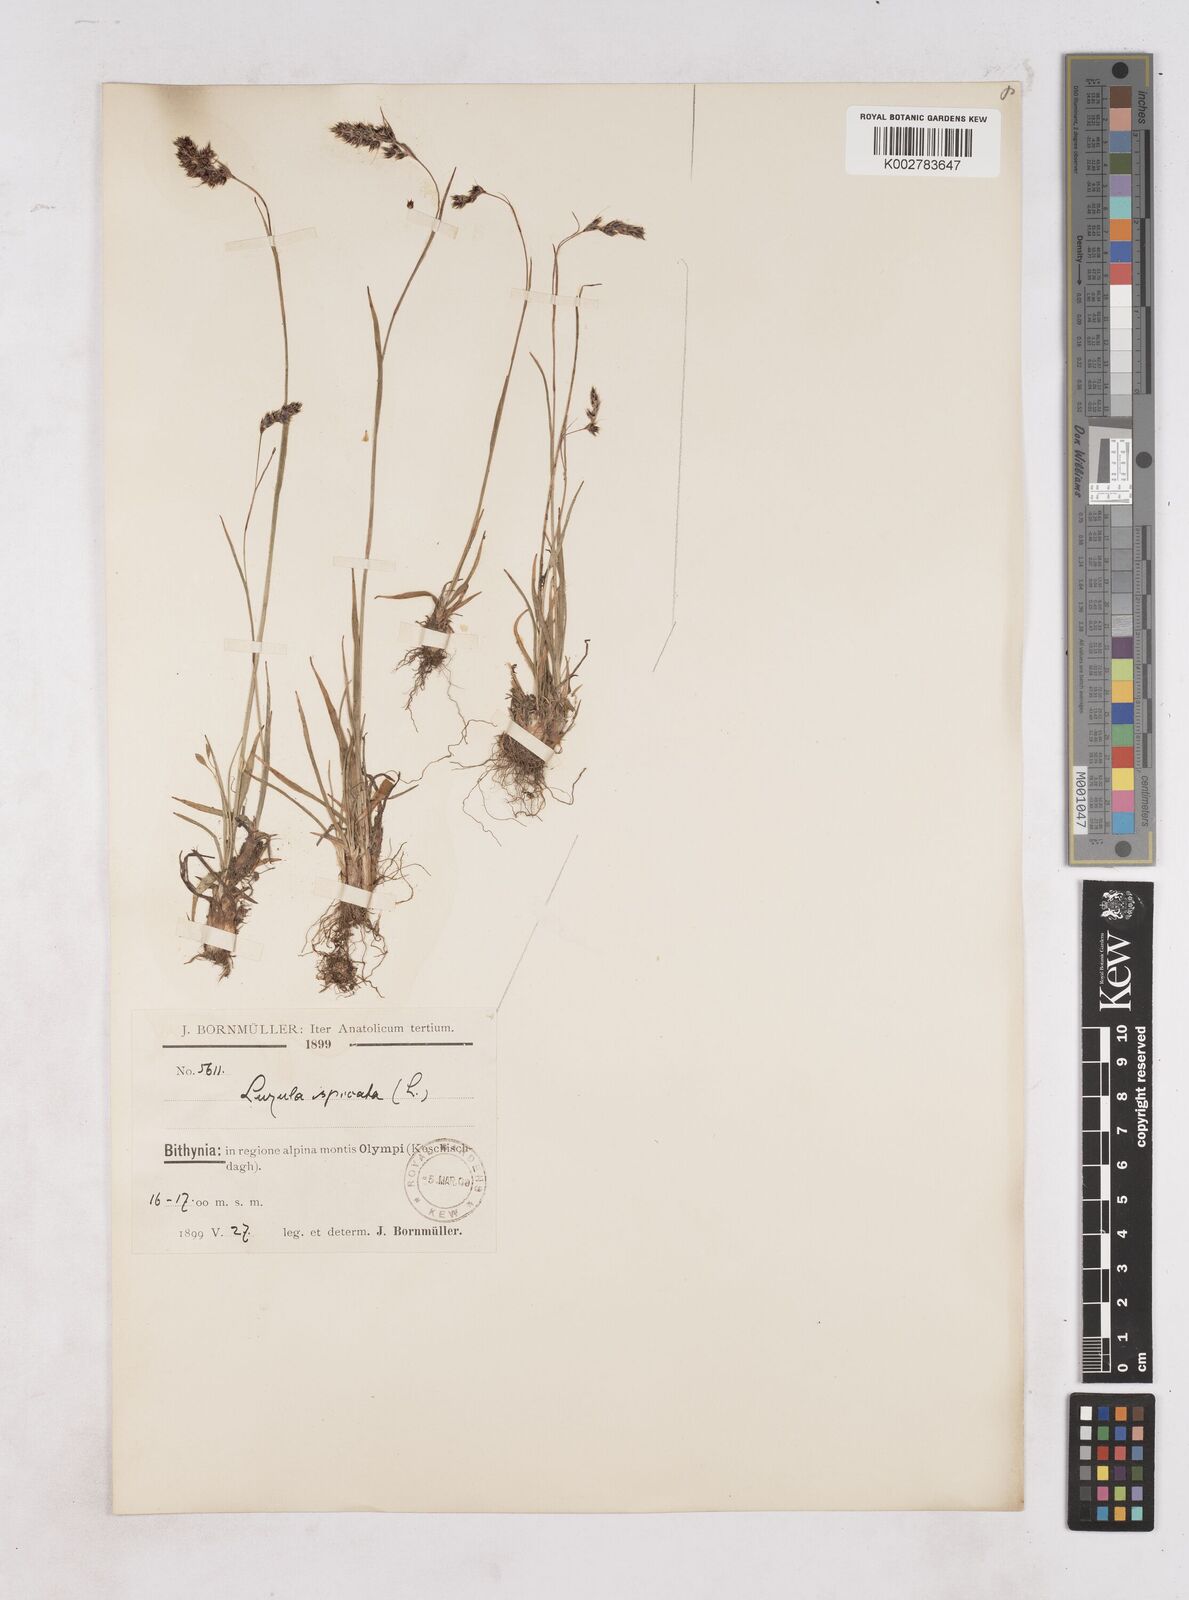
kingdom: Plantae
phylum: Tracheophyta
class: Liliopsida
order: Poales
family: Juncaceae
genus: Luzula
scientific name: Luzula spicata
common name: Spiked wood-rush
